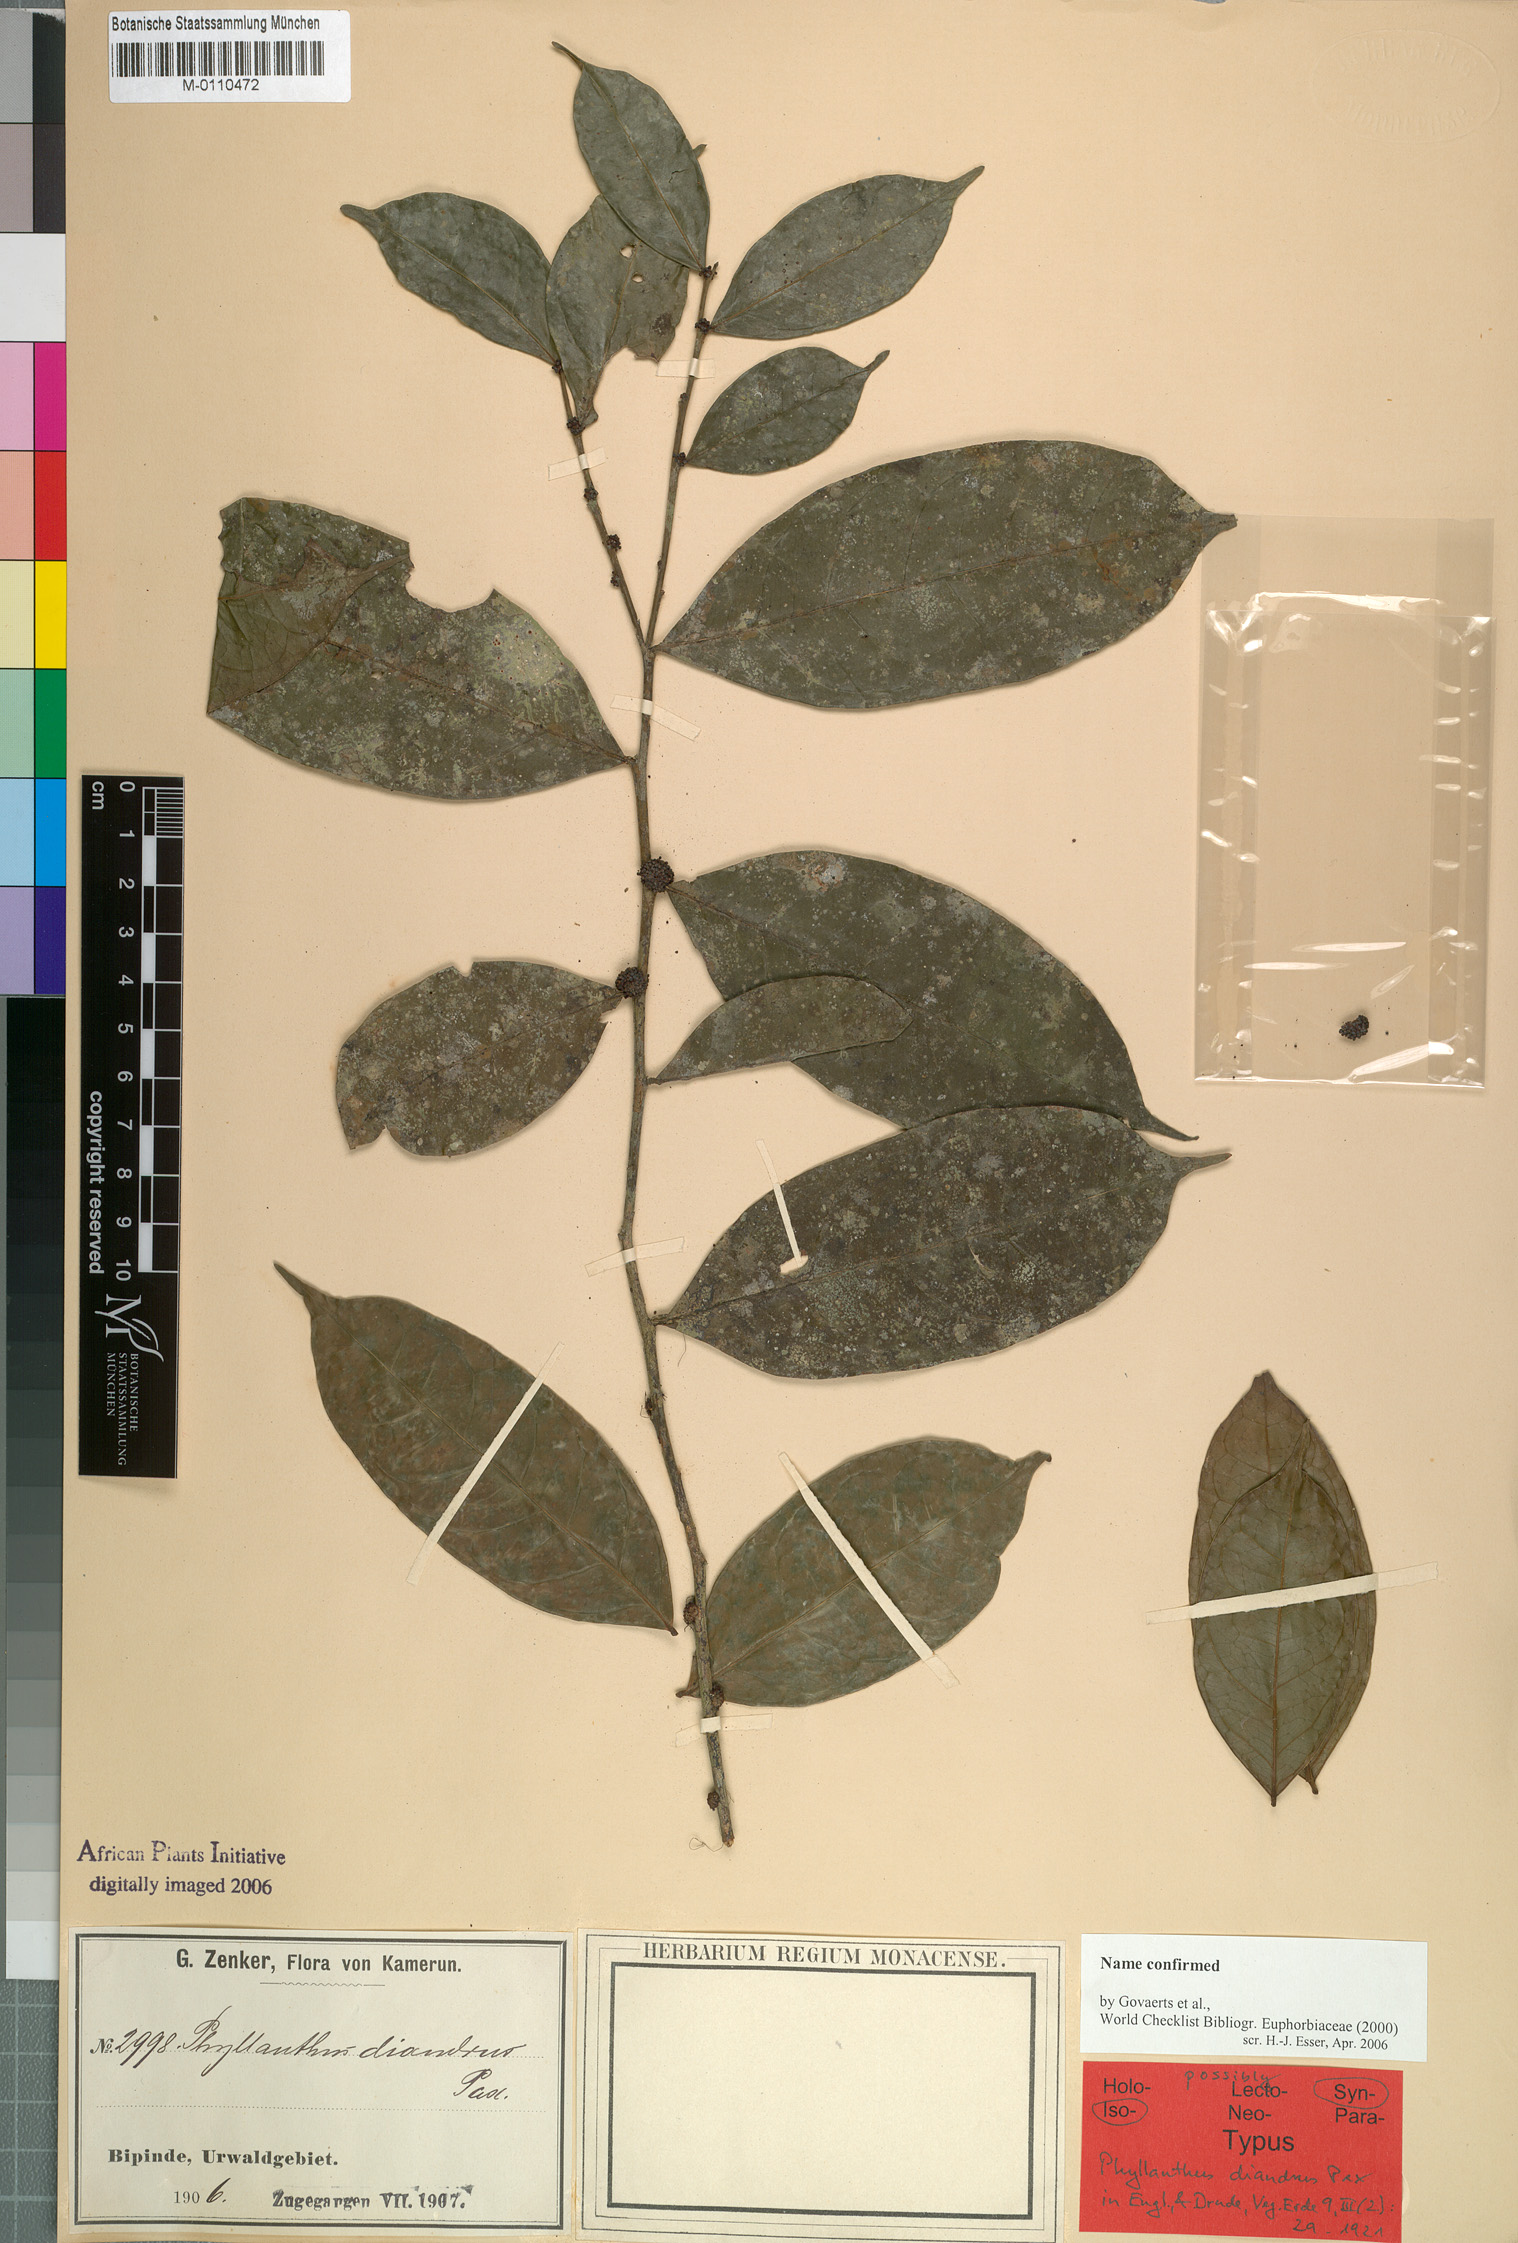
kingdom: Plantae
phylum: Tracheophyta
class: Magnoliopsida
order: Malpighiales
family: Phyllanthaceae
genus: Plagiocladus
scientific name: Plagiocladus diandrus
